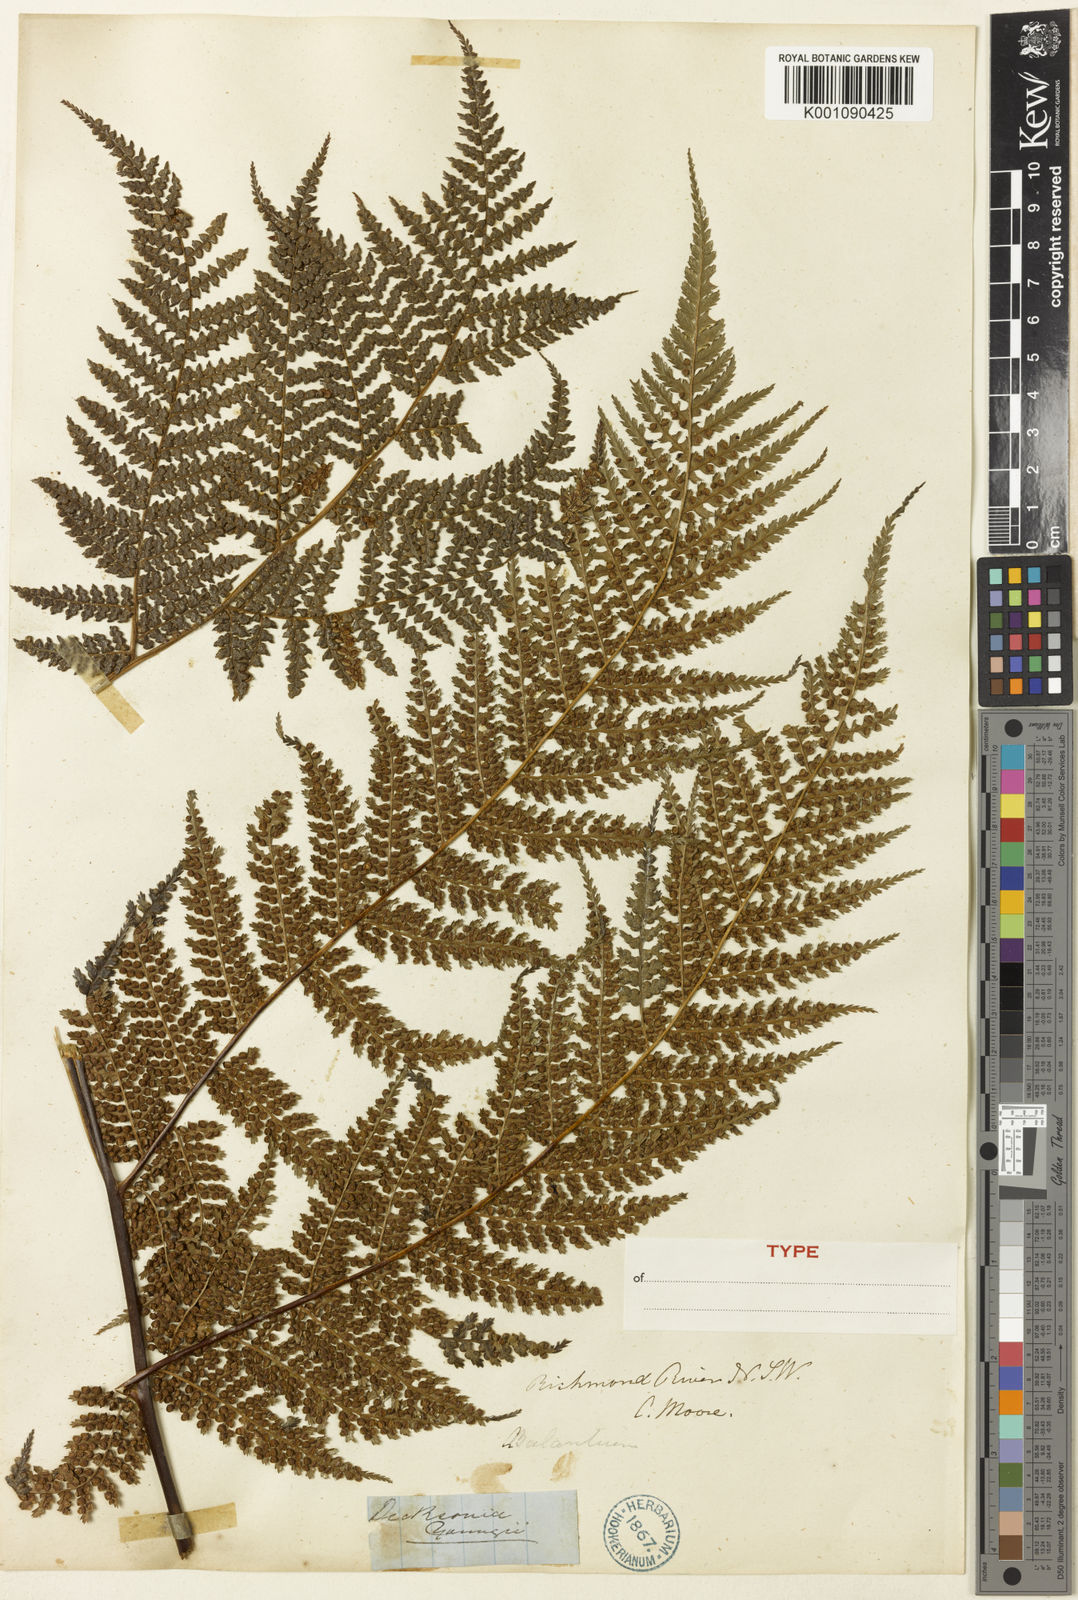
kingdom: Plantae
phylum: Tracheophyta
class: Polypodiopsida
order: Cyatheales
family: Dicksoniaceae
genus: Dicksonia
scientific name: Dicksonia
